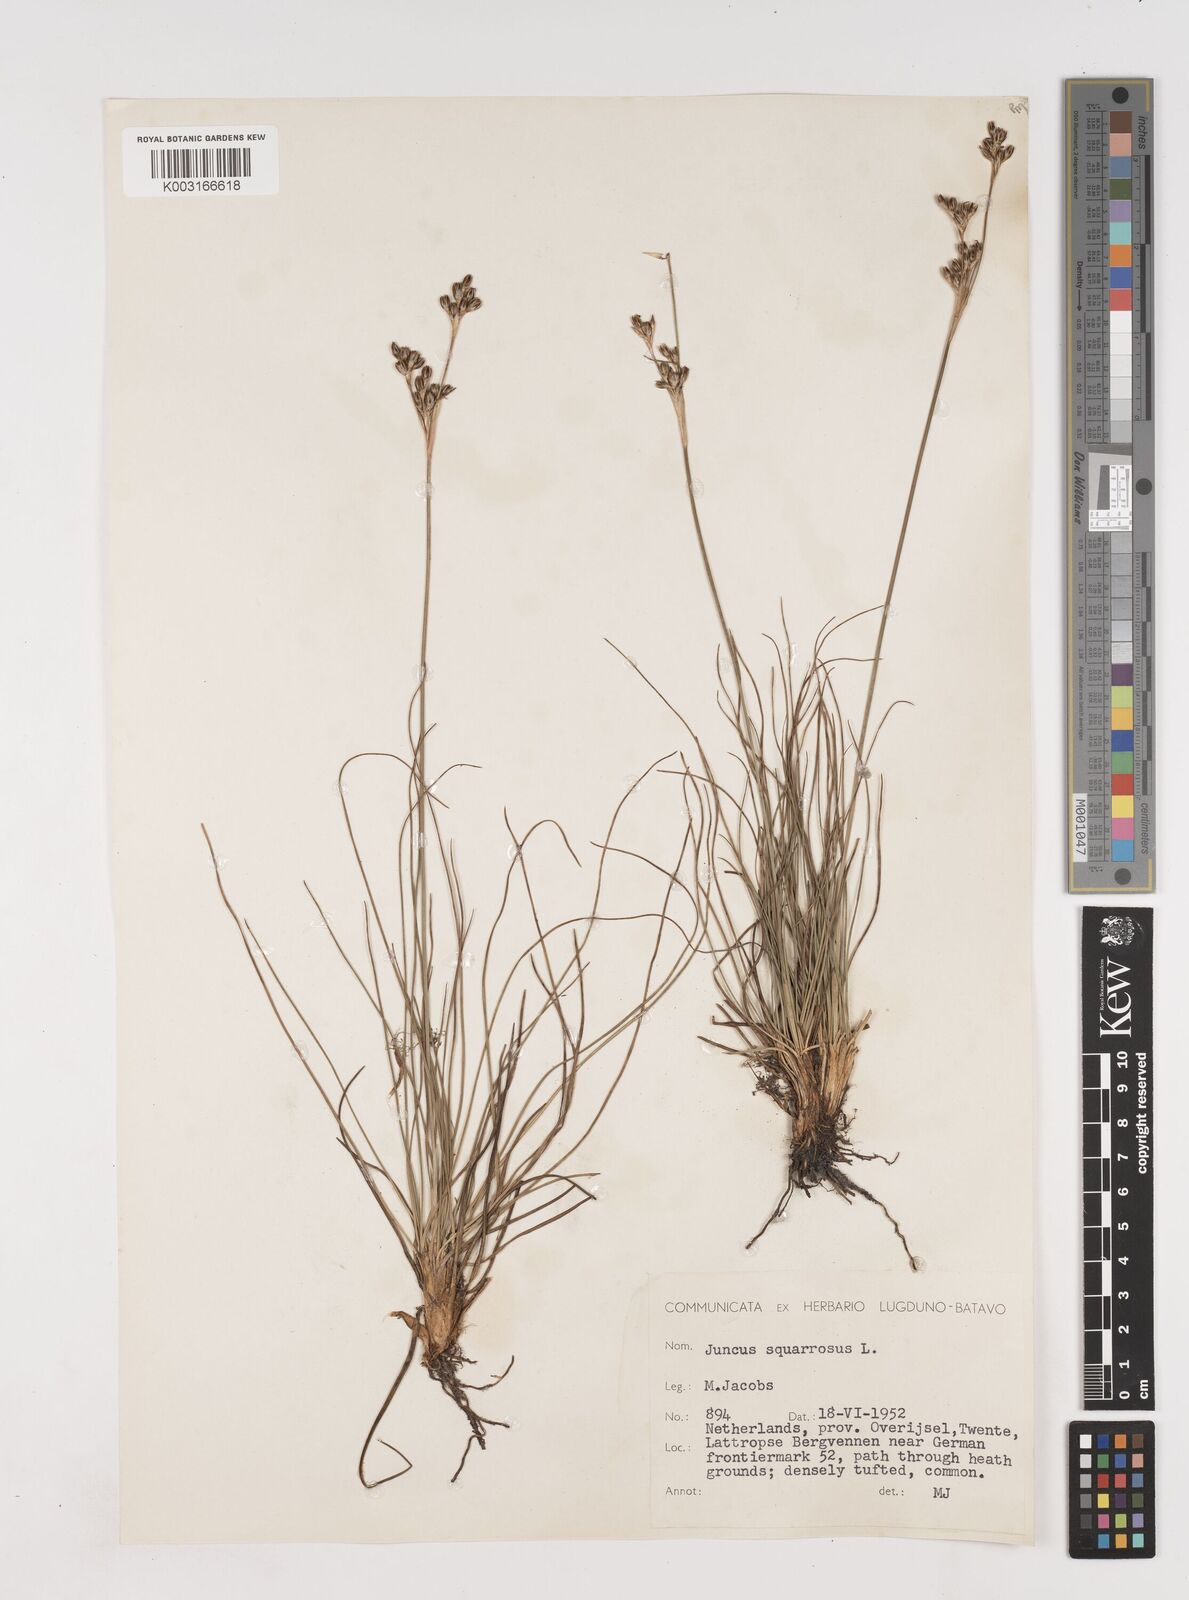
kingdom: Plantae
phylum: Tracheophyta
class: Liliopsida
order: Poales
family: Juncaceae
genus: Juncus
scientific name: Juncus squarrosus
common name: Heath rush
